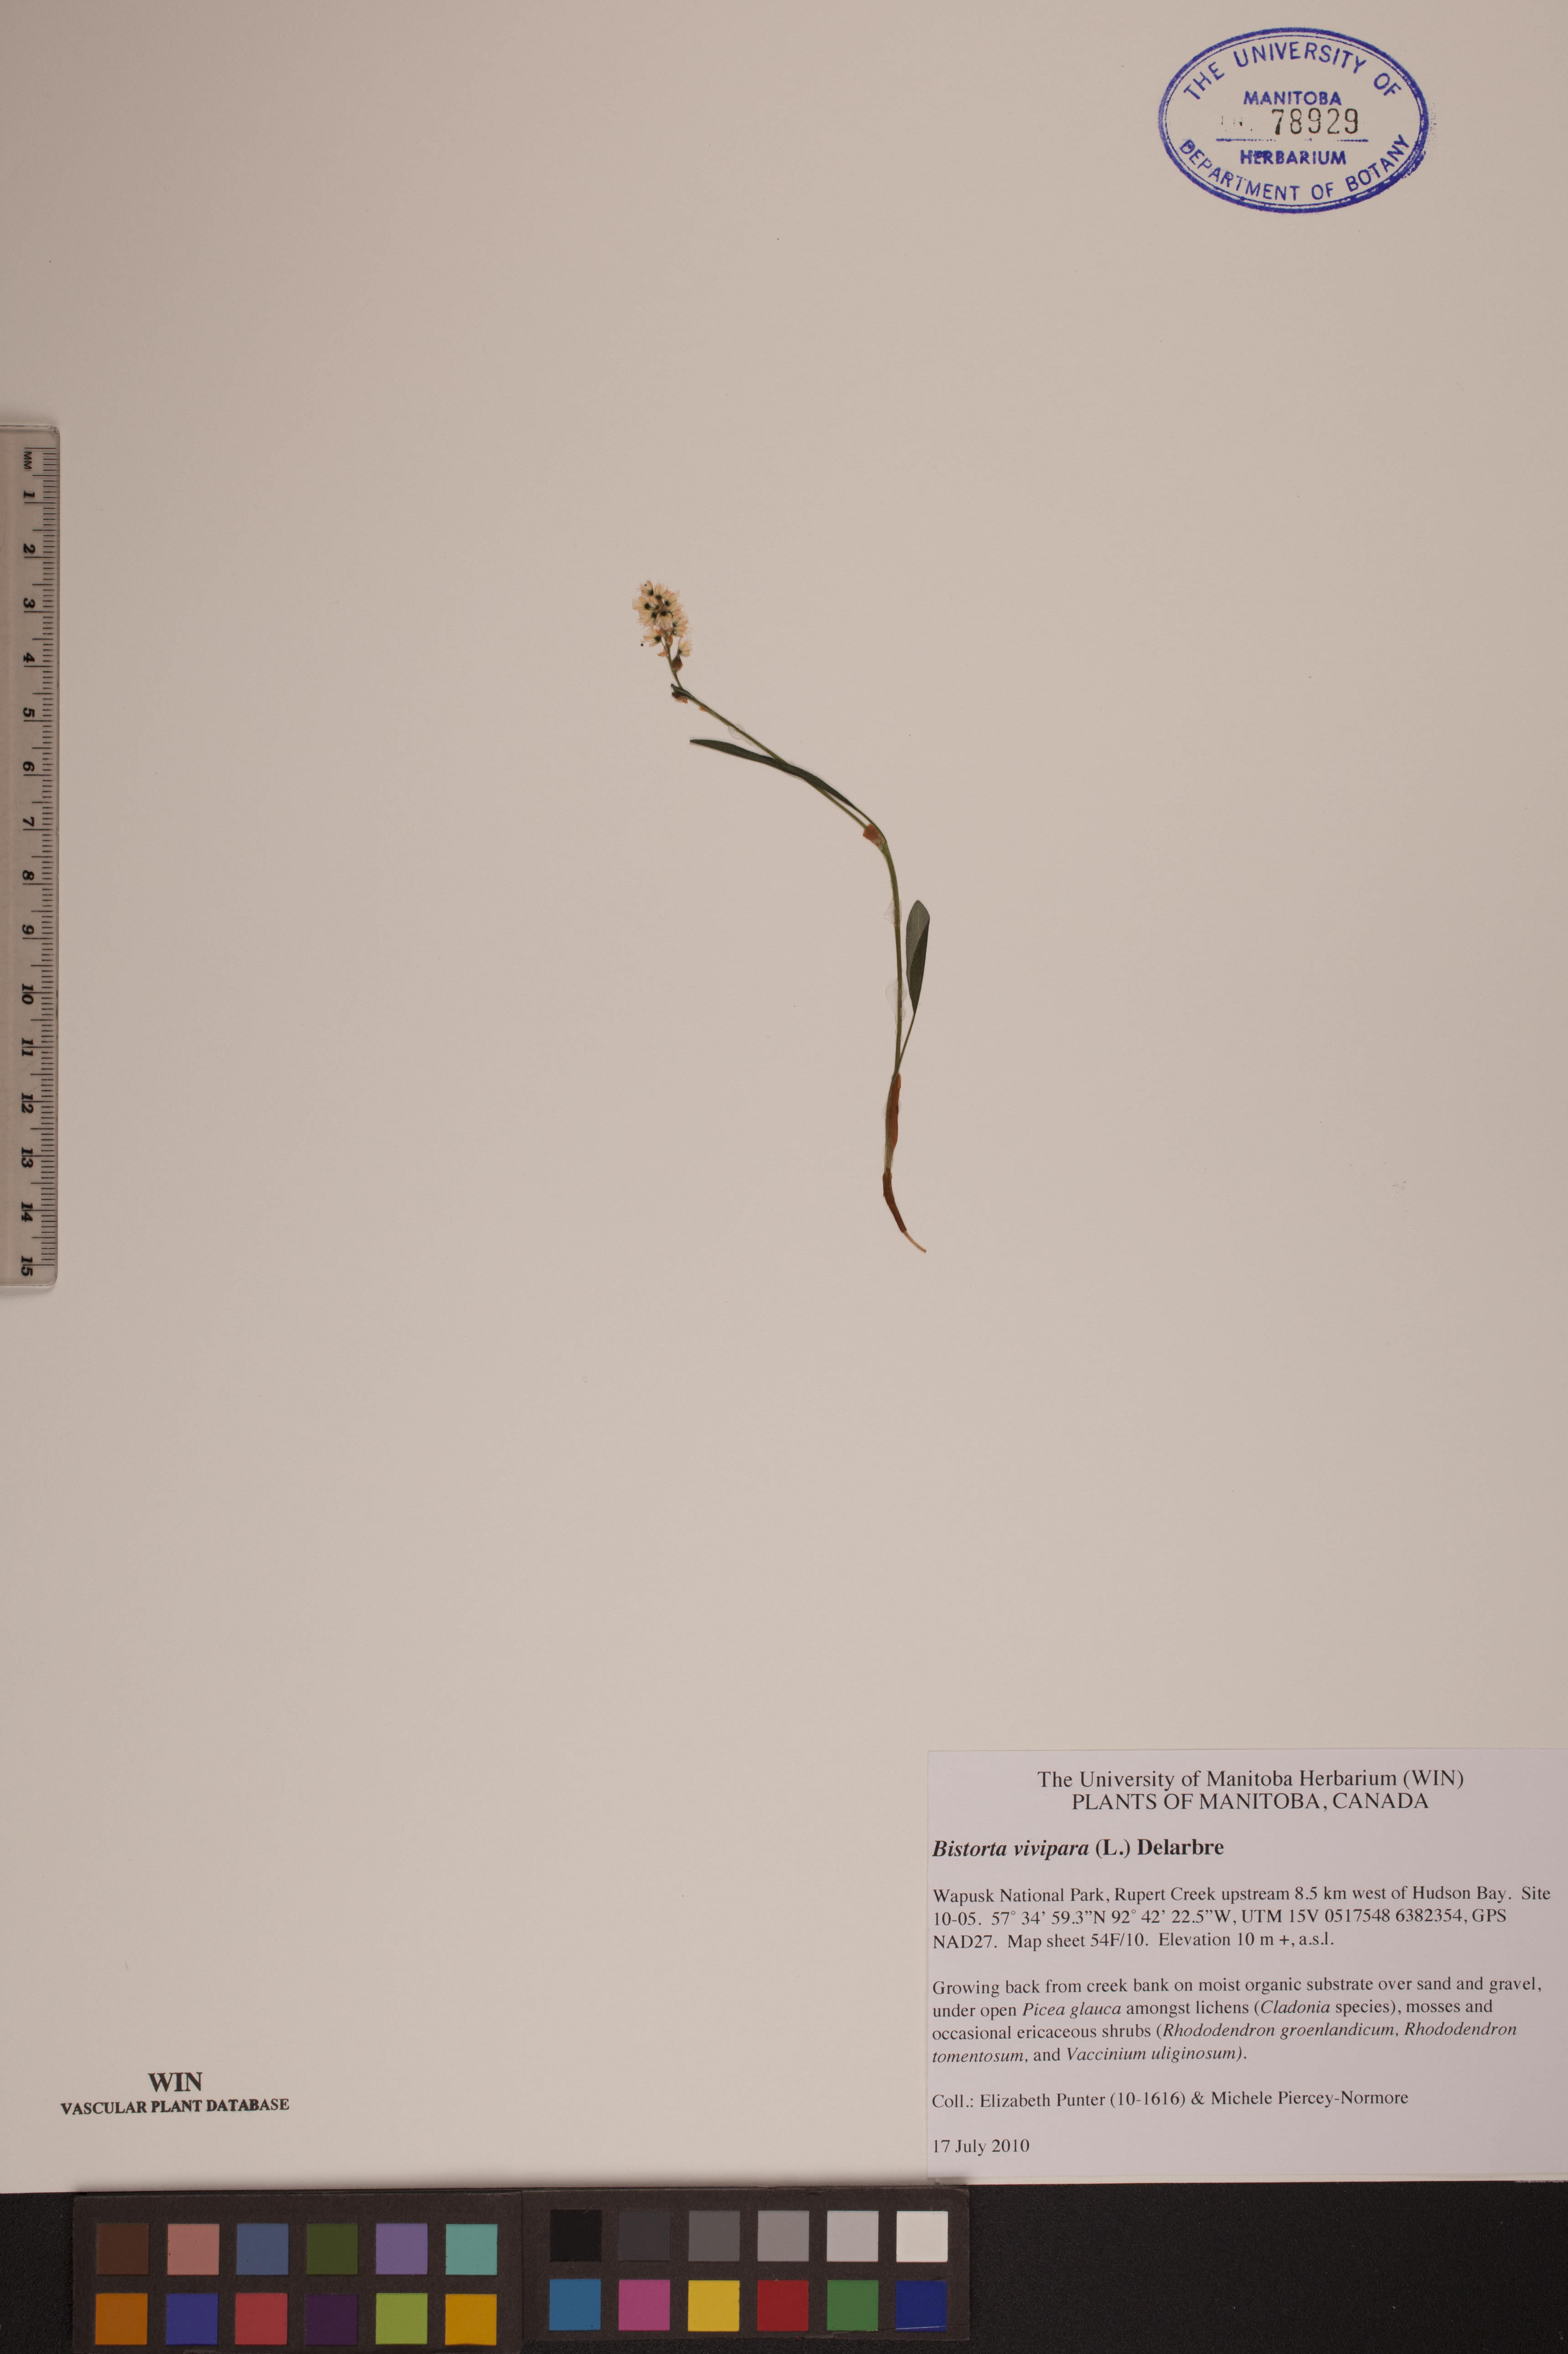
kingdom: Plantae
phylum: Tracheophyta
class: Magnoliopsida
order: Caryophyllales
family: Polygonaceae
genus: Bistorta
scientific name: Bistorta vivipara
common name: Alpine bistort
